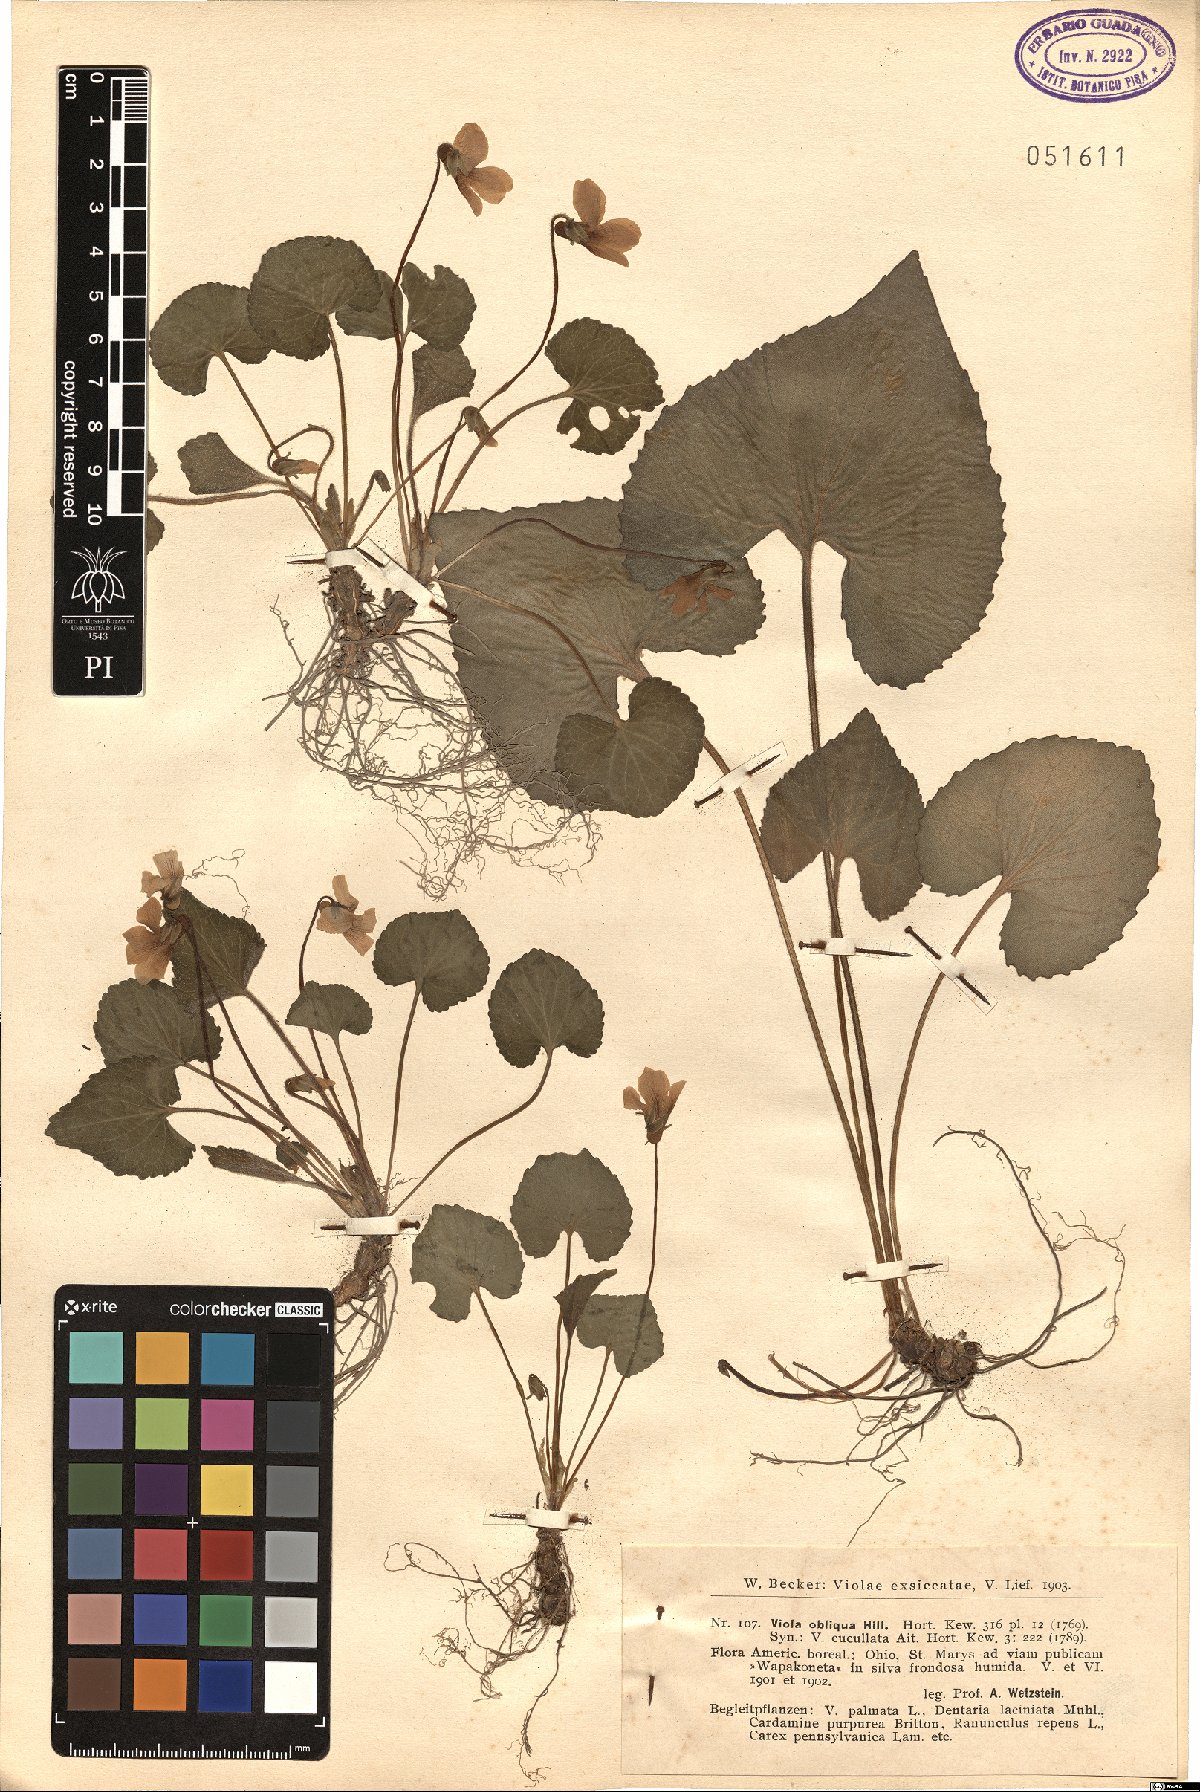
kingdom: Plantae
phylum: Tracheophyta
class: Magnoliopsida
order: Saxifragales
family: Crassulaceae
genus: Sedum
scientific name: Sedum ternatum
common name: Wild stonecrop
